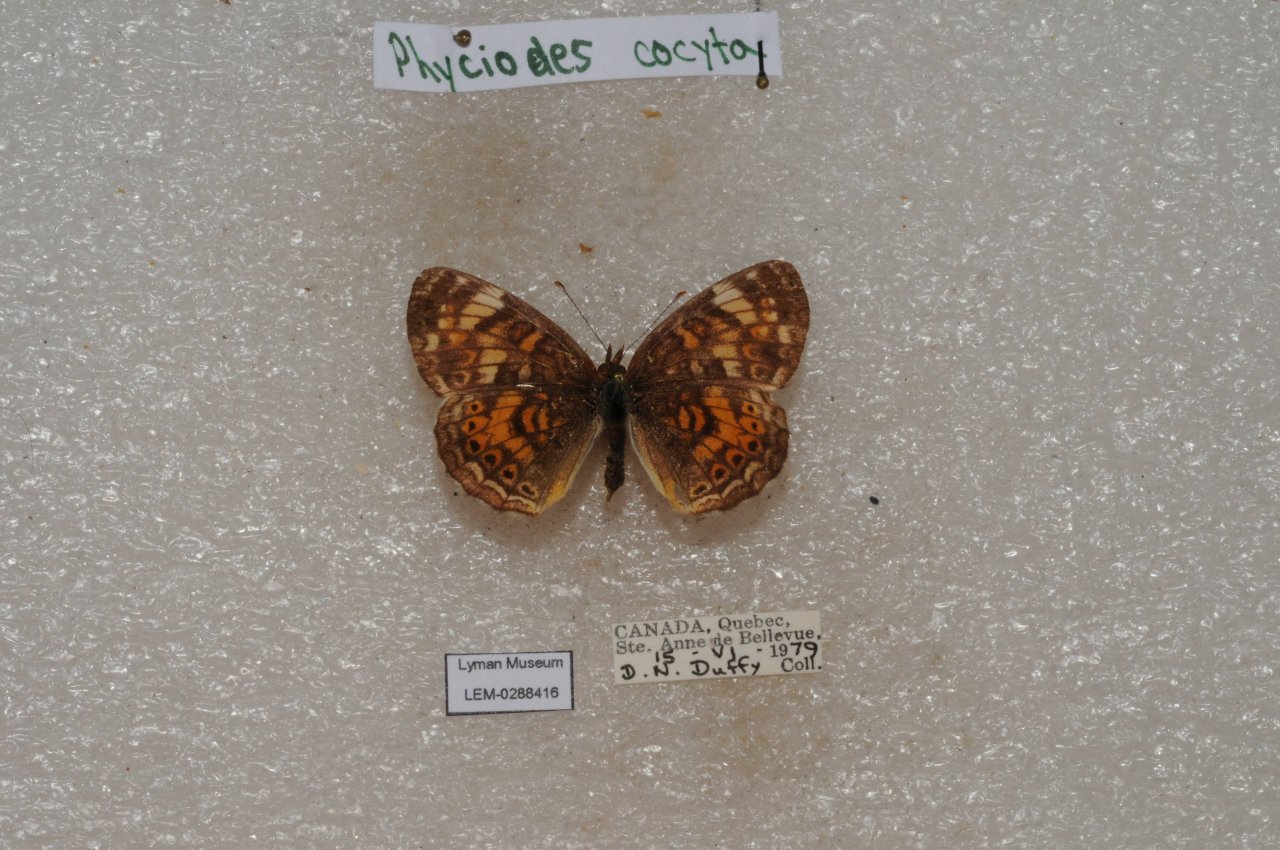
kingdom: Animalia
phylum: Arthropoda
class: Insecta
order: Lepidoptera
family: Nymphalidae
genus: Phyciodes
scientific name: Phyciodes tharos
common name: Northern Crescent
